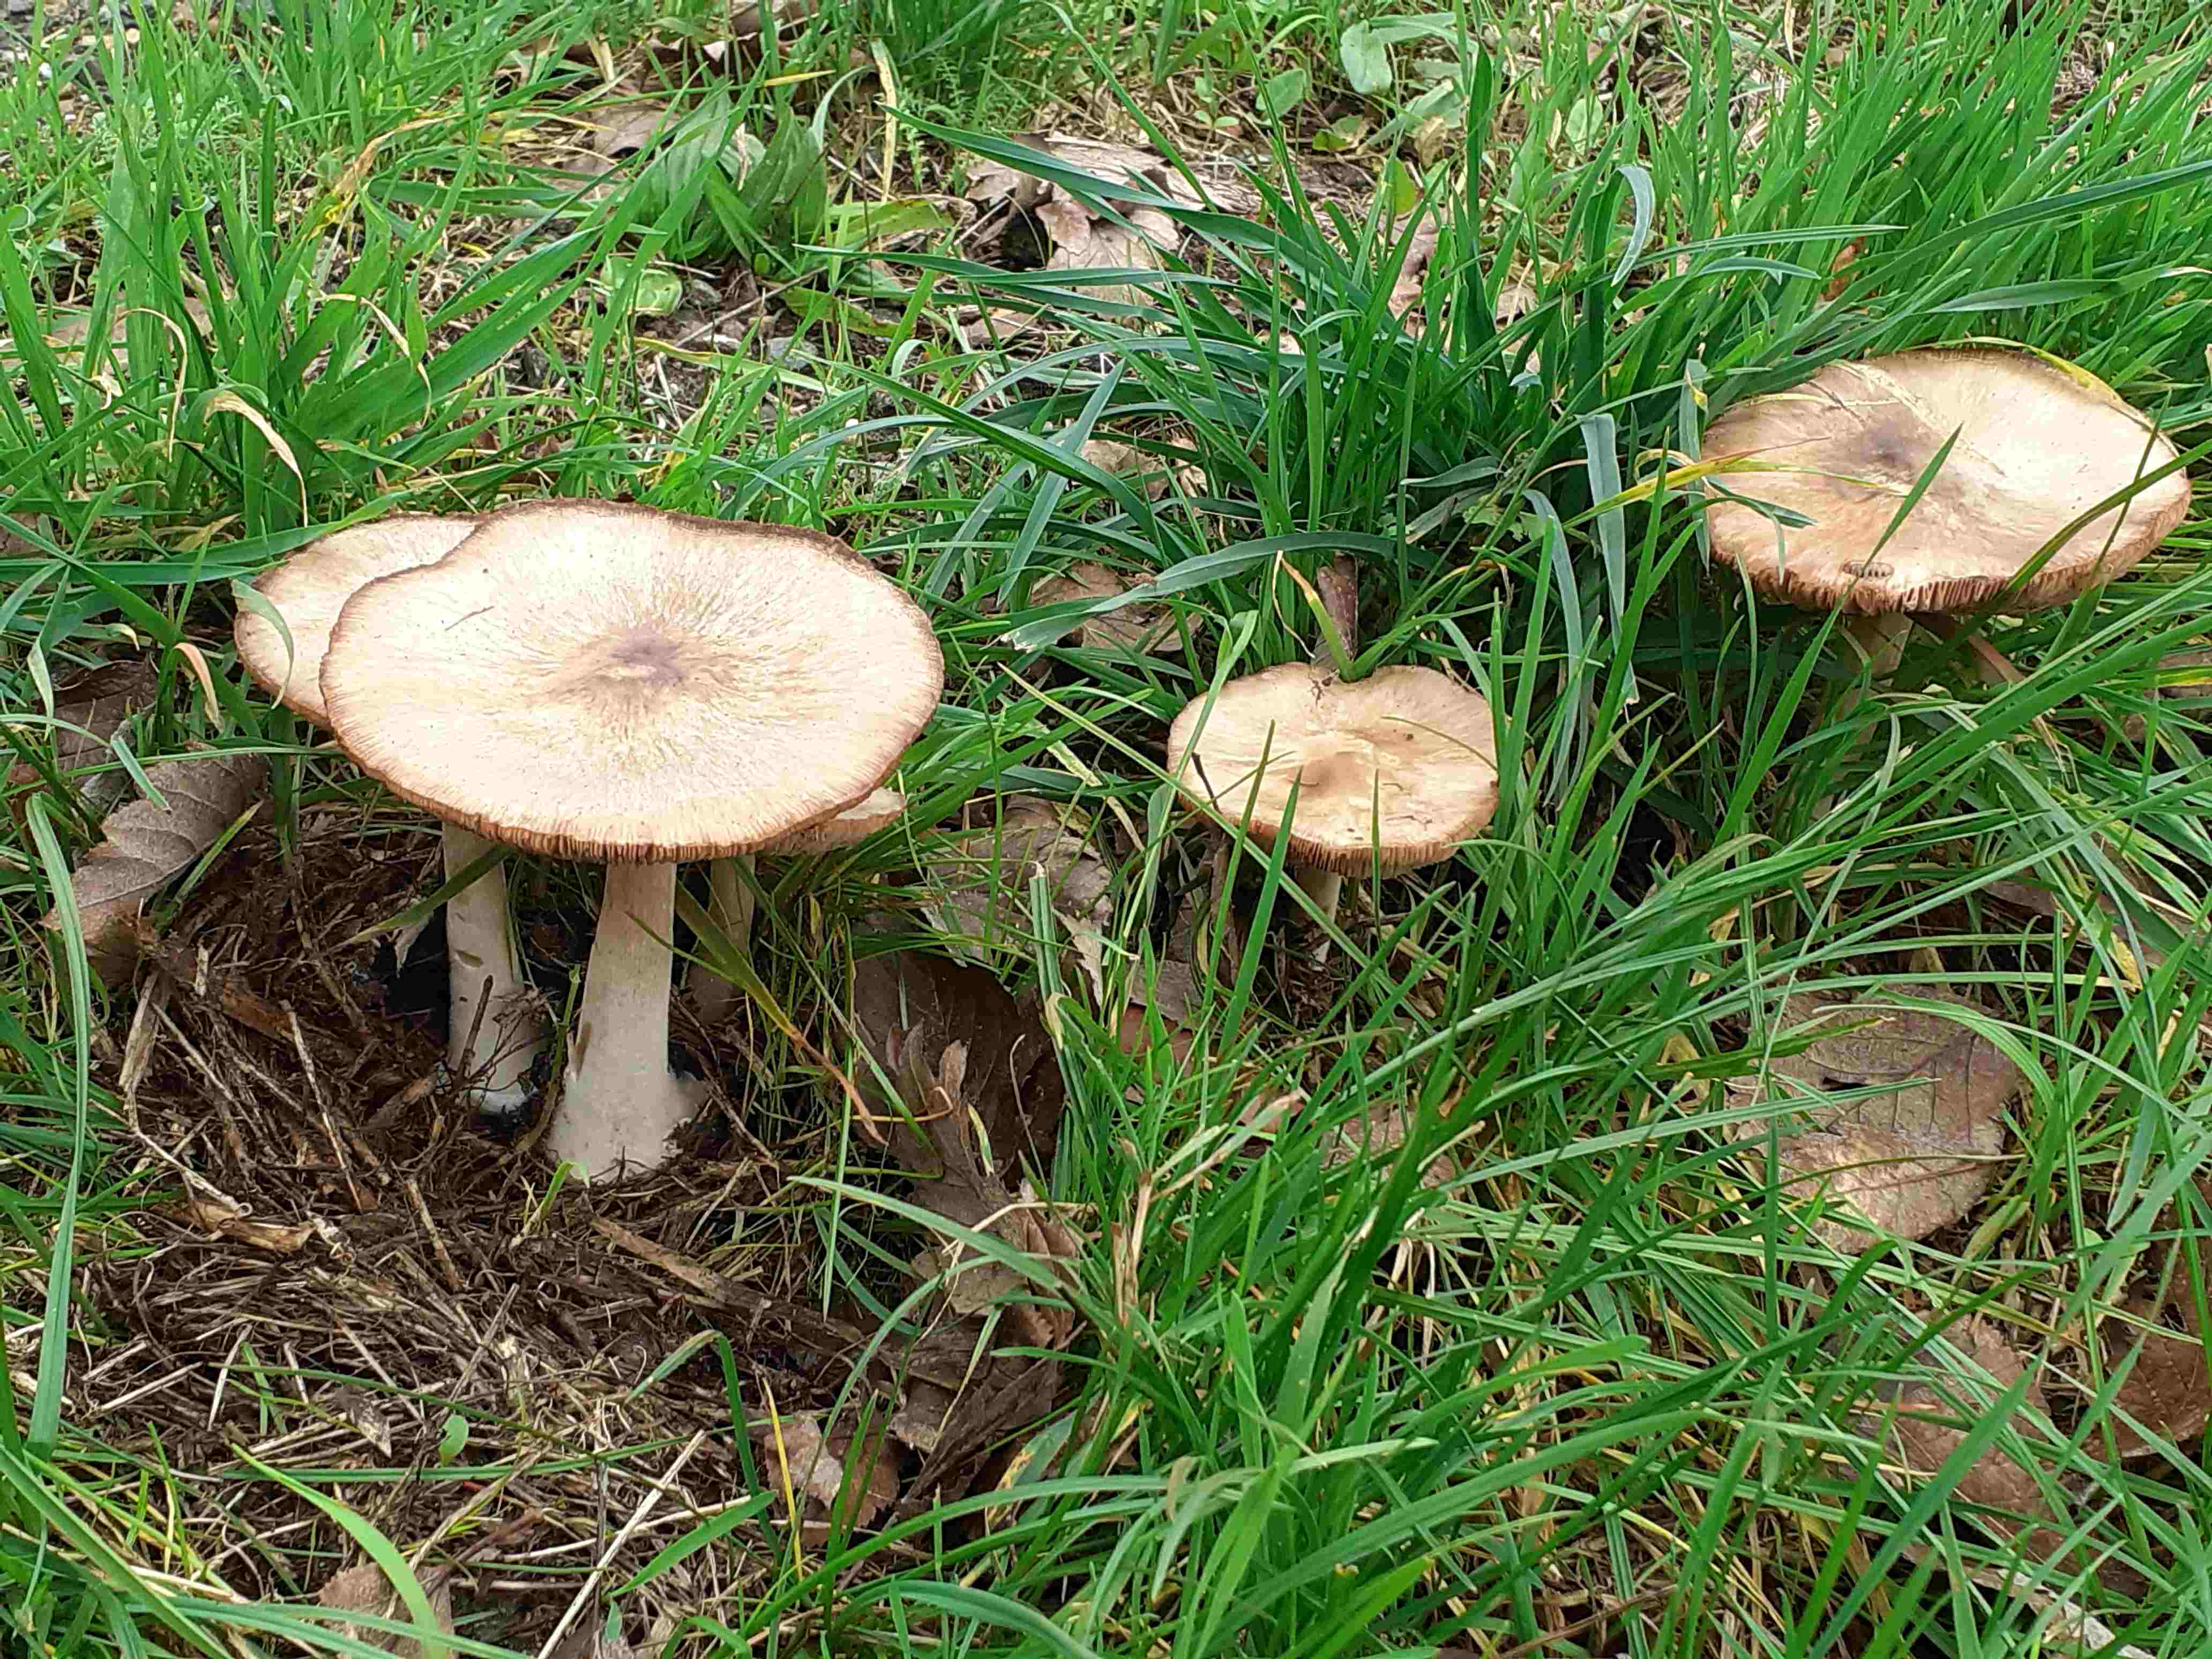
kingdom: Fungi
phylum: Basidiomycota
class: Agaricomycetes
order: Agaricales
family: Pluteaceae
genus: Volvopluteus
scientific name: Volvopluteus gloiocephalus
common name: høj posesvamp
